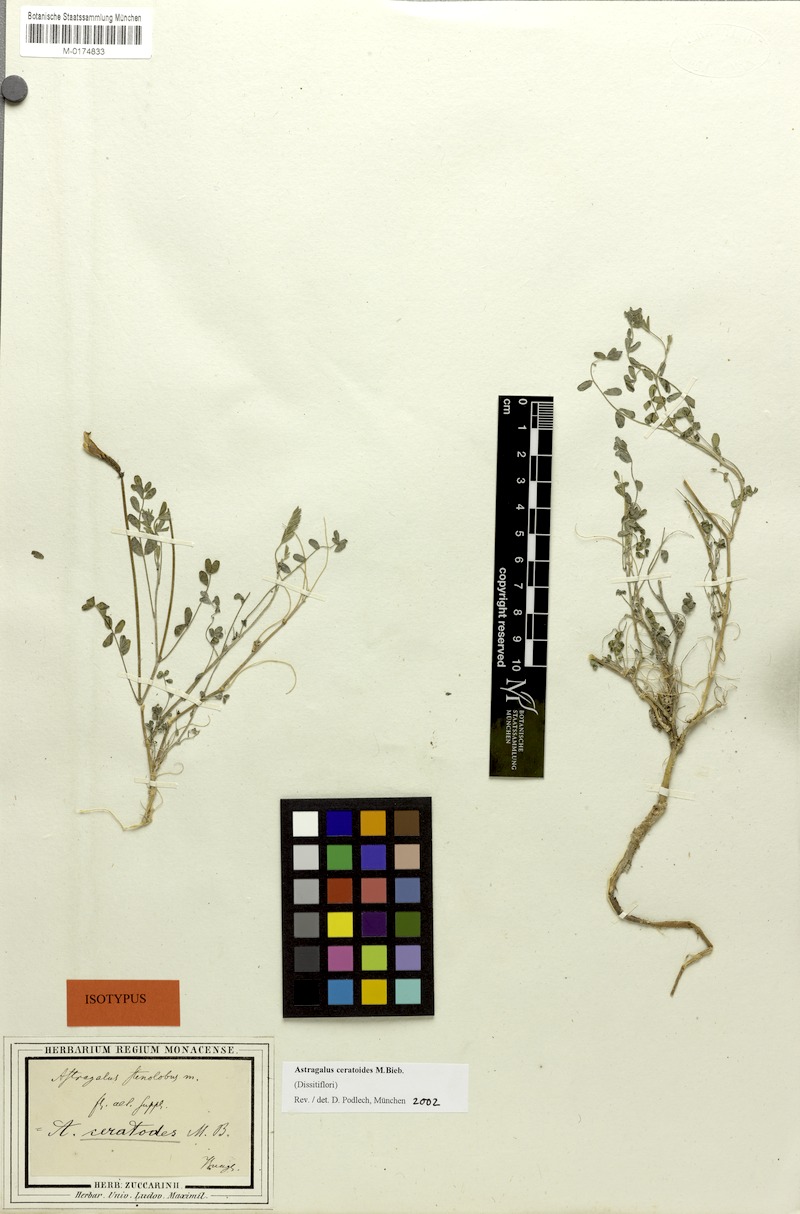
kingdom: Plantae
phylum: Tracheophyta
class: Magnoliopsida
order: Fabales
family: Fabaceae
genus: Astragalus
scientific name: Astragalus ceratoides
